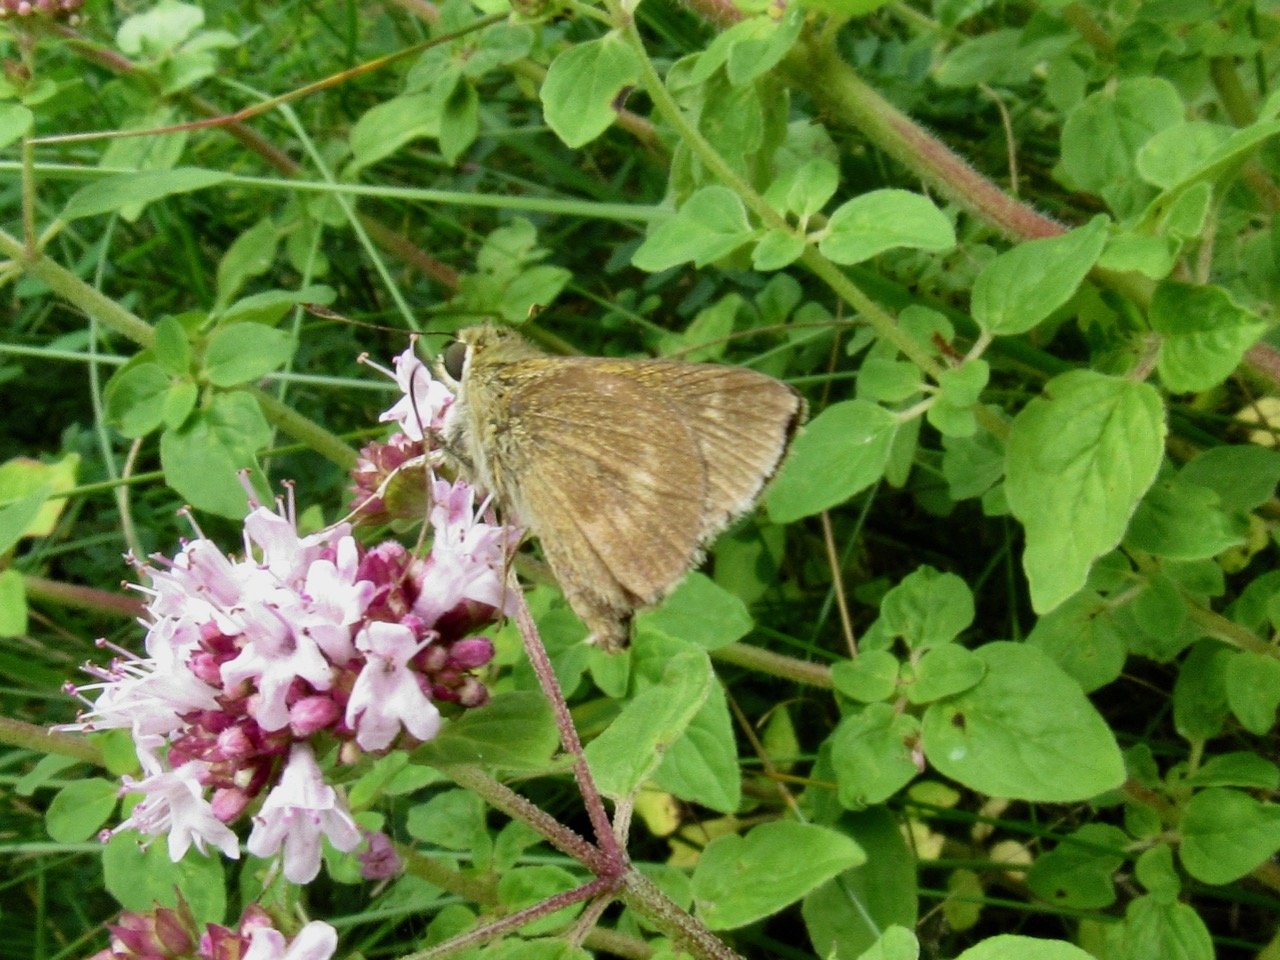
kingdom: Animalia
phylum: Arthropoda
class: Insecta
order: Lepidoptera
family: Hesperiidae
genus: Polites
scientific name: Polites egeremet
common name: Northern Broken-Dash
